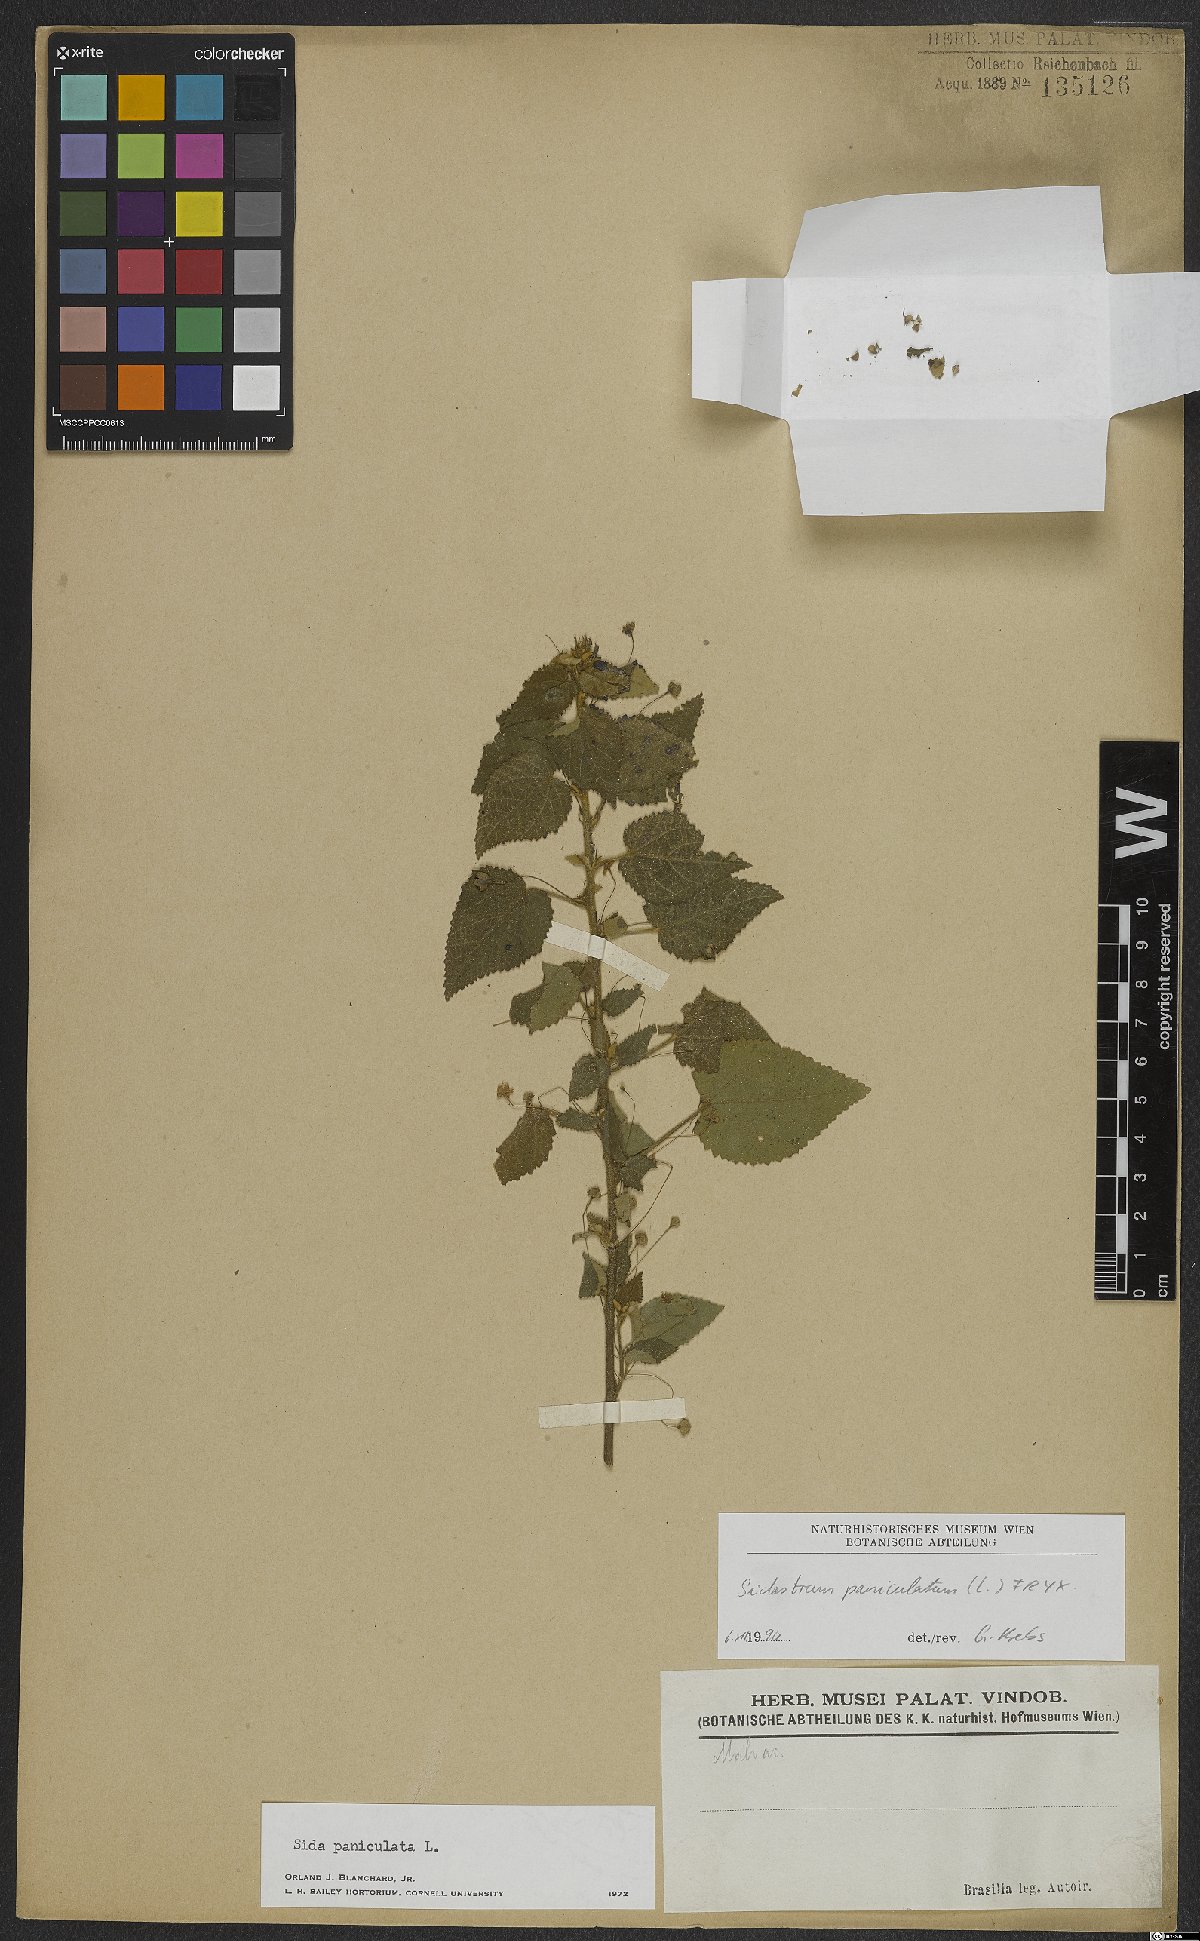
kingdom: Plantae
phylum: Tracheophyta
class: Magnoliopsida
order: Malvales
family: Malvaceae
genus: Sidastrum
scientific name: Sidastrum paniculatum
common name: Panicled sandmallow
